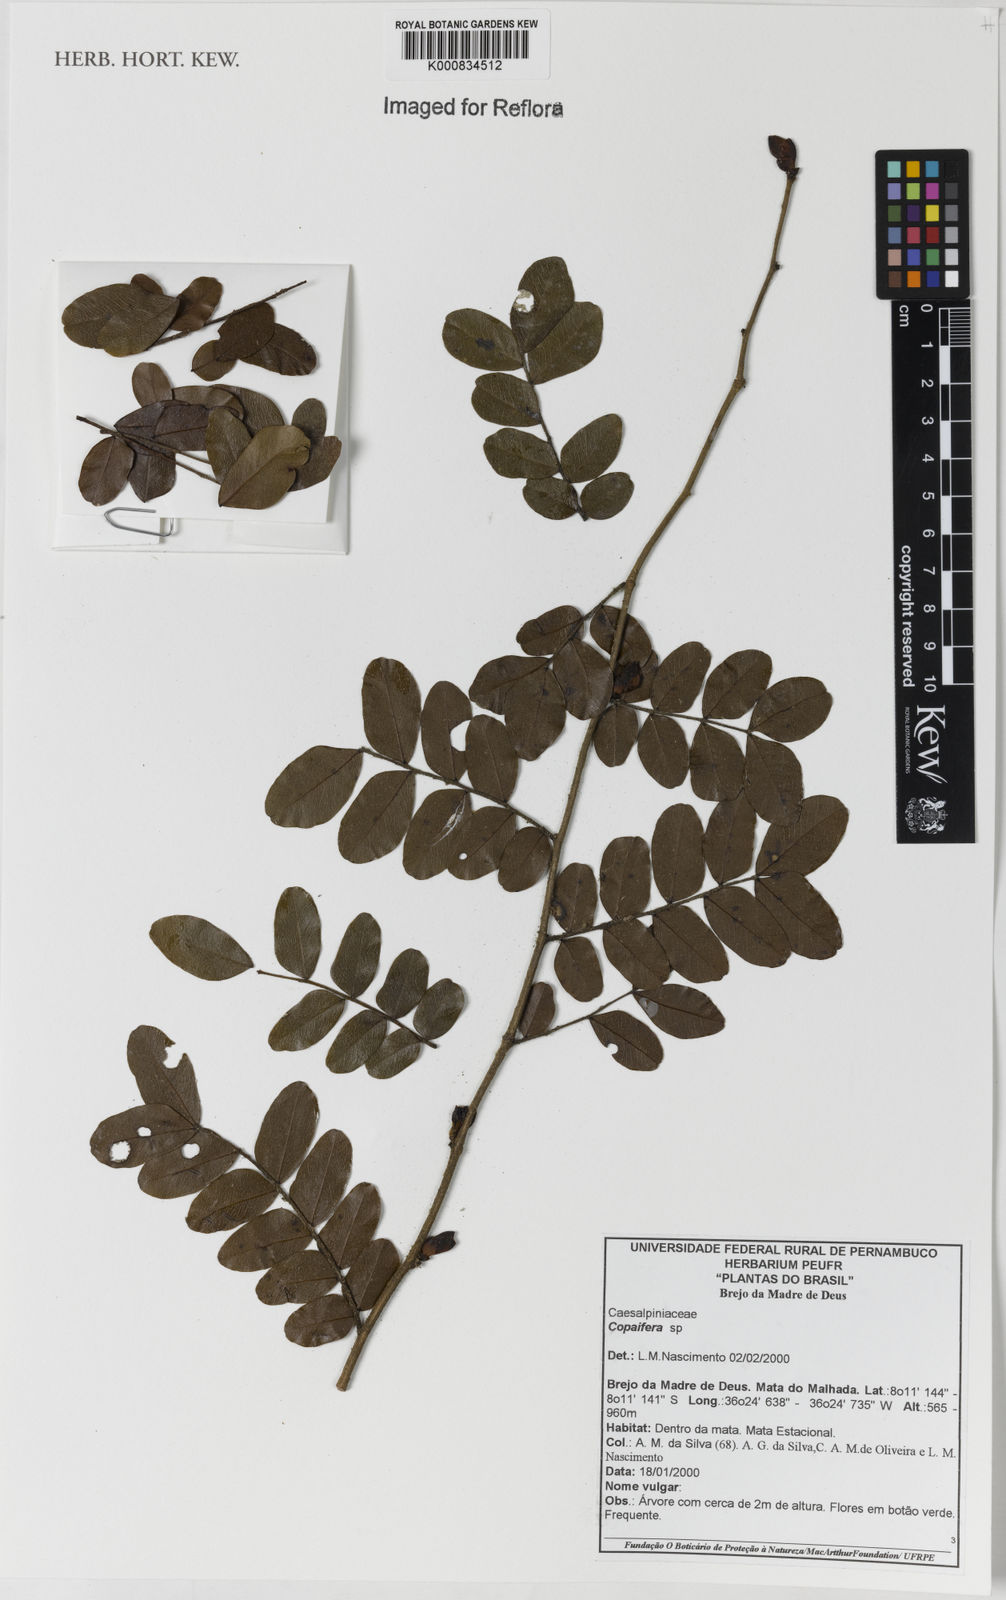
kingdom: Plantae
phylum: Tracheophyta
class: Magnoliopsida
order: Fabales
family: Fabaceae
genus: Copaifera
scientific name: Copaifera
